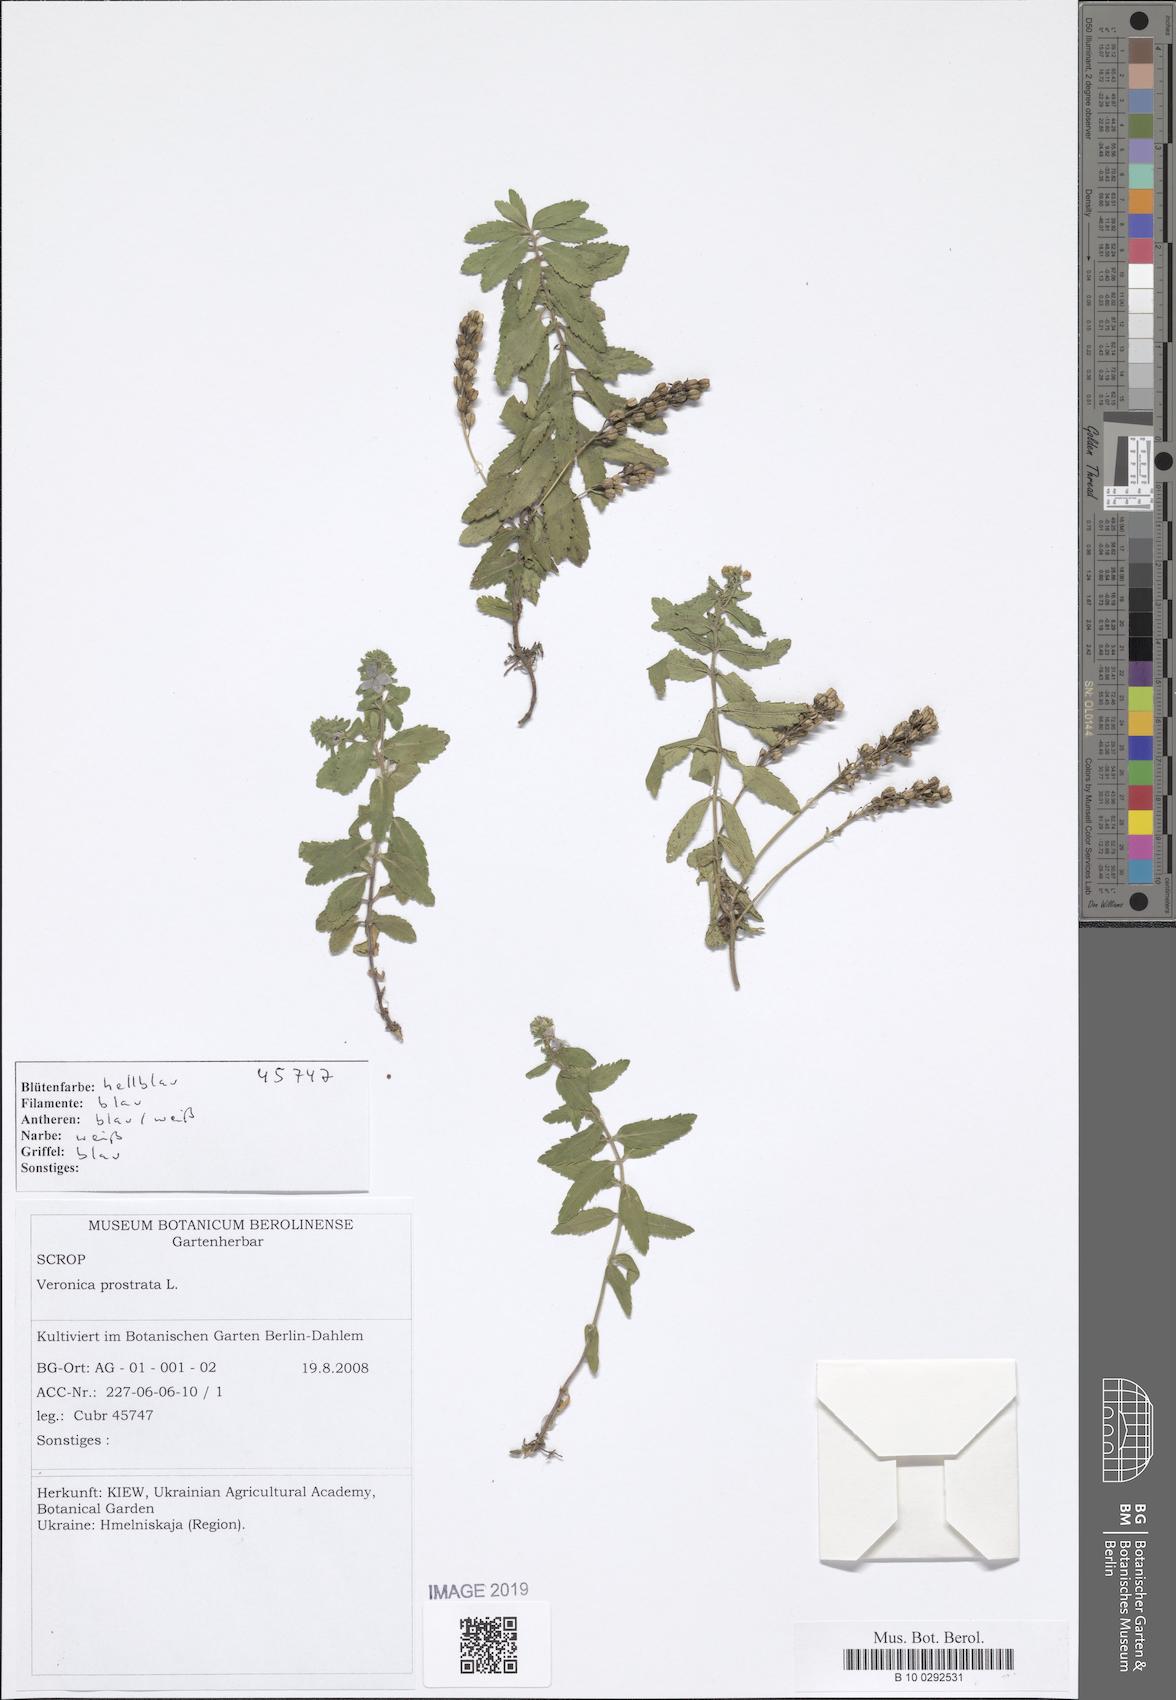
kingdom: Plantae
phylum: Tracheophyta
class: Magnoliopsida
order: Lamiales
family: Plantaginaceae
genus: Veronica
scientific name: Veronica prostrata
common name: Prostrate speedwell
